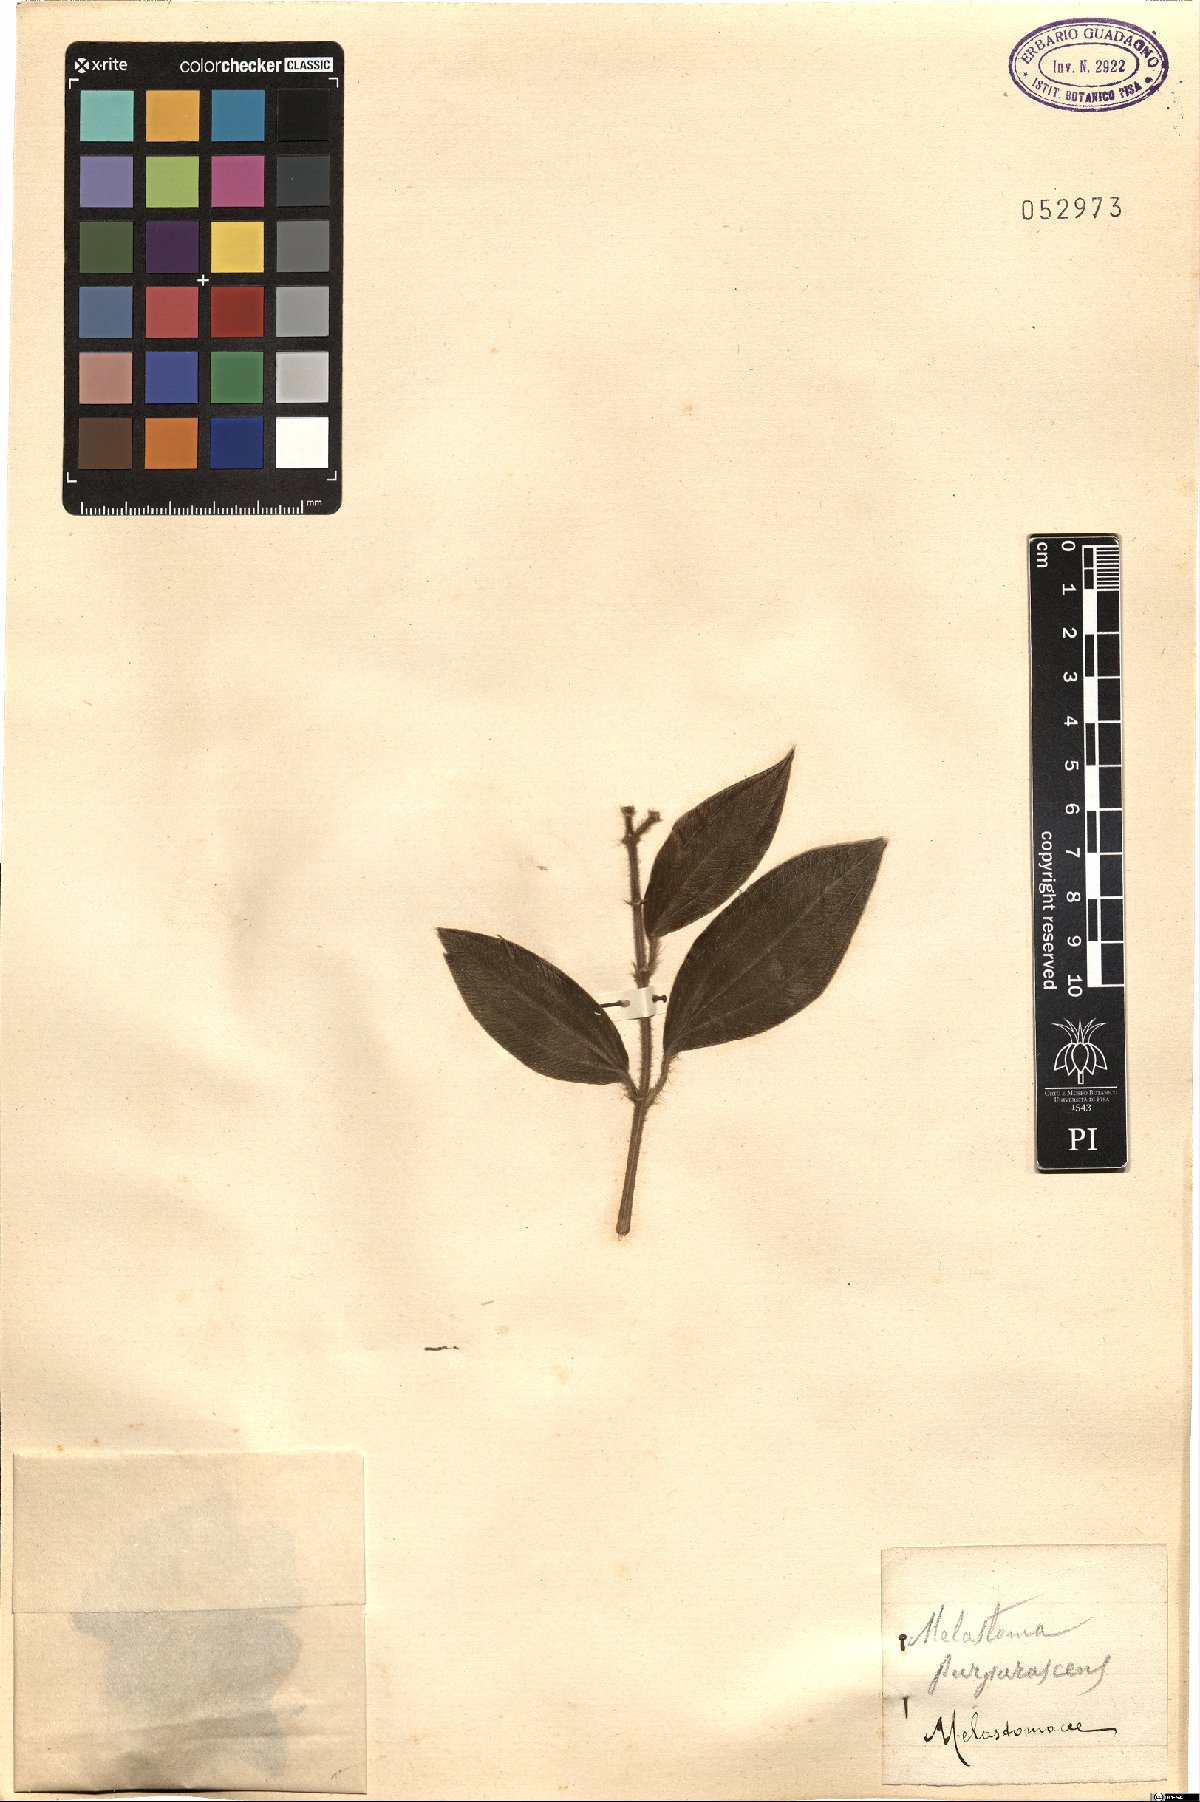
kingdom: Plantae
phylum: Tracheophyta
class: Magnoliopsida
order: Myrtales
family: Melastomataceae
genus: Miconia
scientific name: Miconia microstachya
